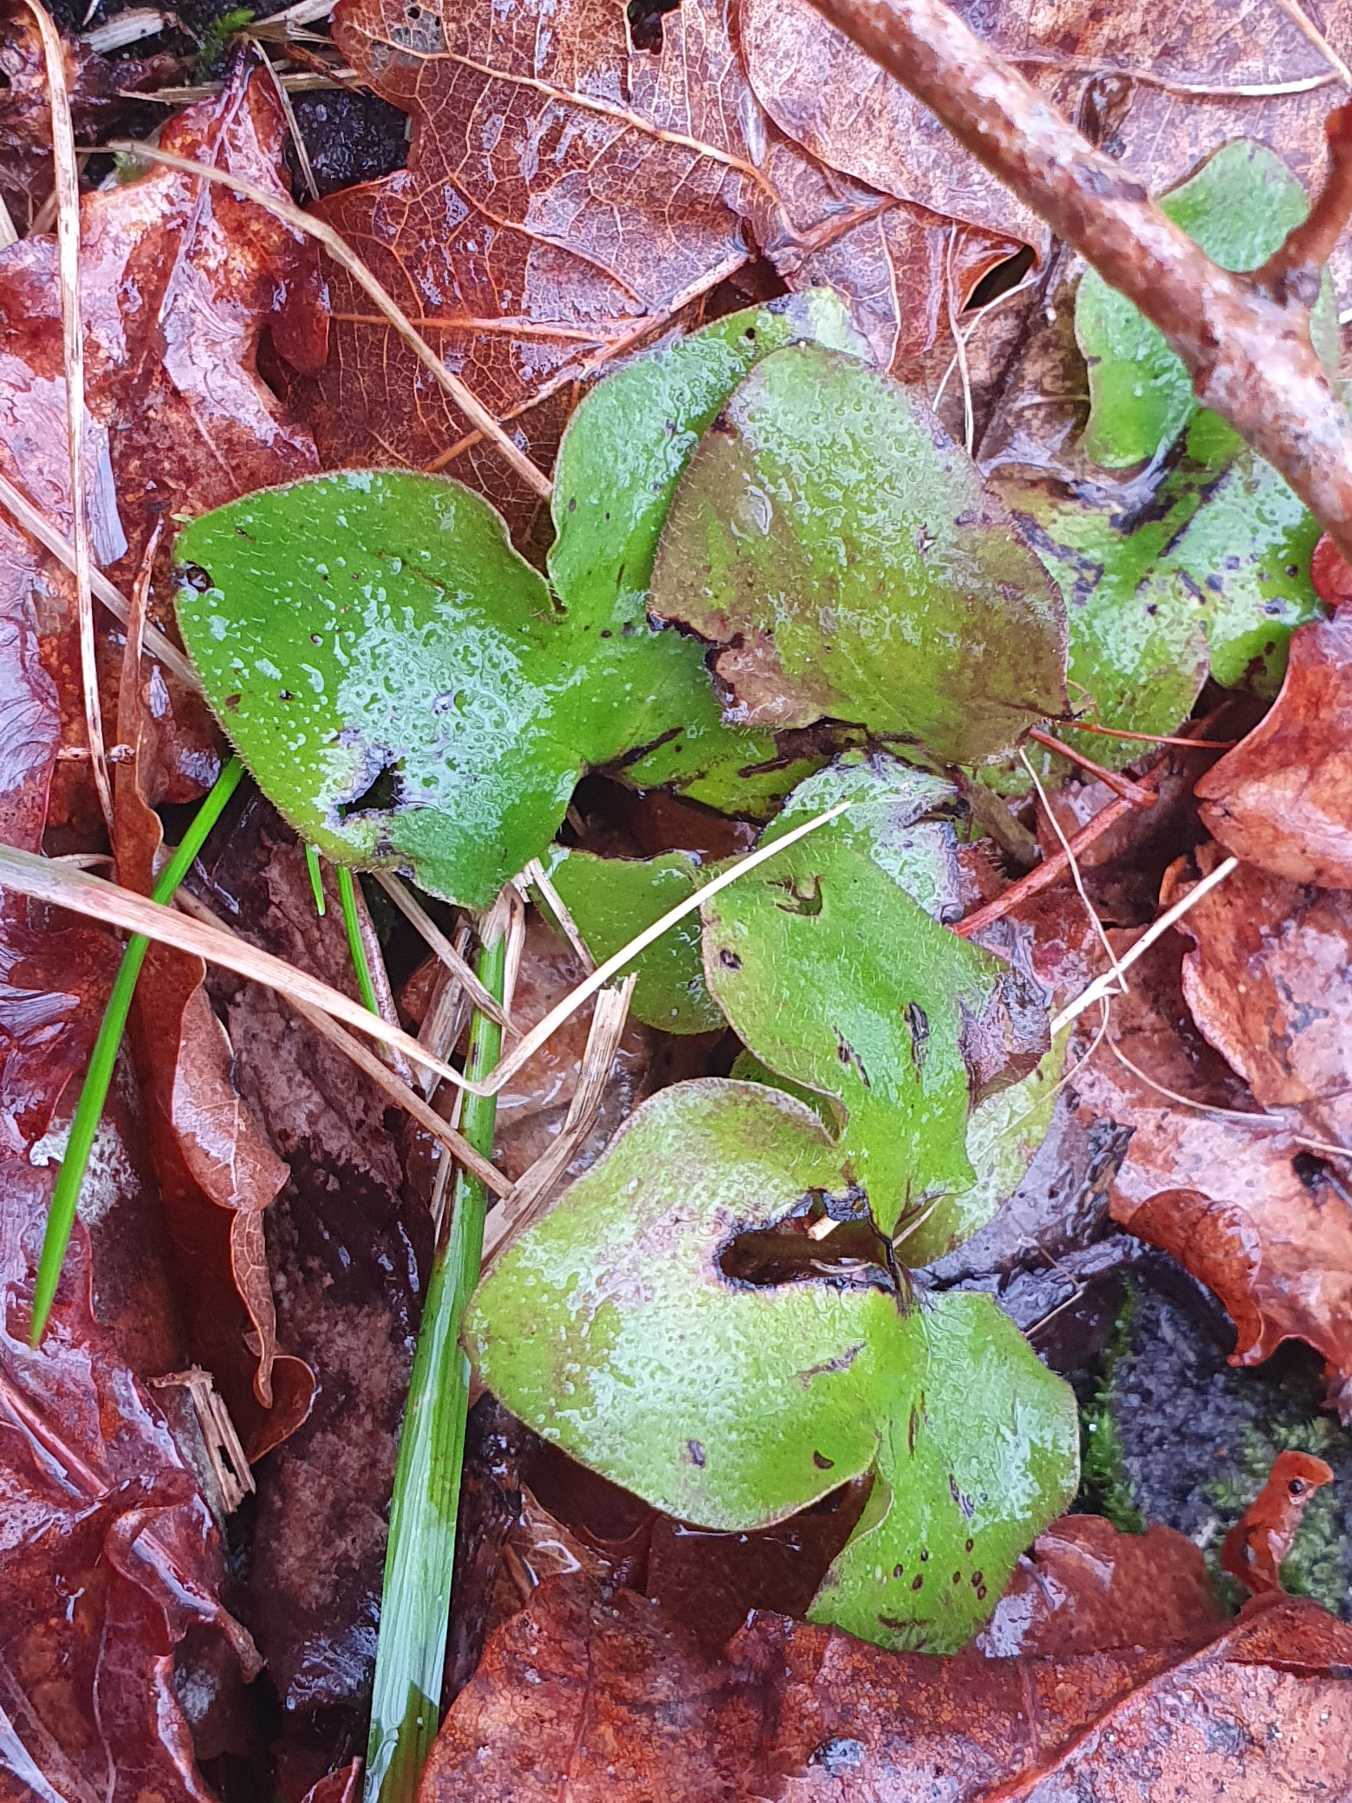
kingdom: Plantae
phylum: Tracheophyta
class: Magnoliopsida
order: Ranunculales
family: Ranunculaceae
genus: Hepatica
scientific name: Hepatica nobilis
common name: Blå anemone
